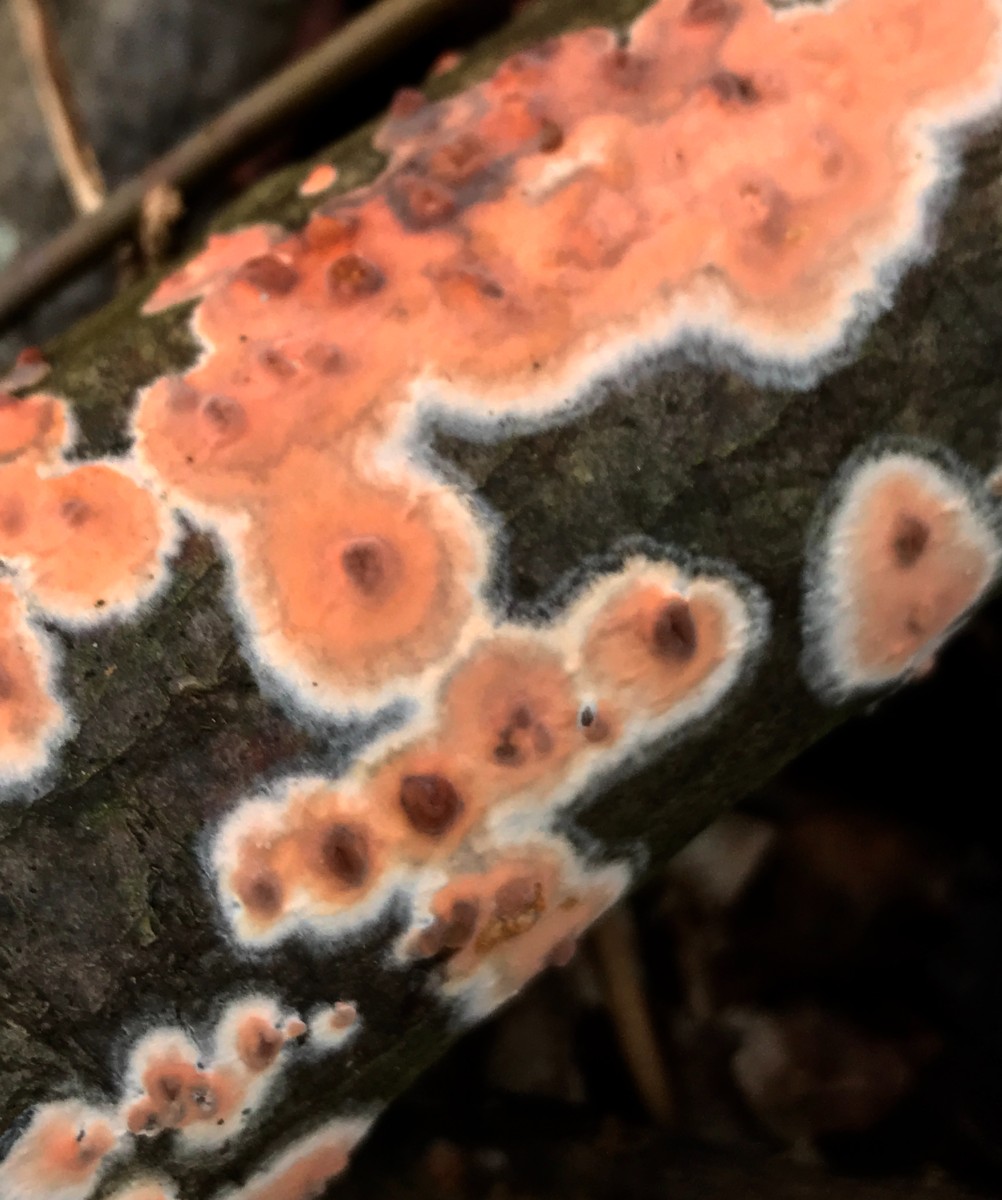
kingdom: Fungi
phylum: Basidiomycota
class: Agaricomycetes
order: Russulales
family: Peniophoraceae
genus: Peniophora
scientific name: Peniophora incarnata
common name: laksefarvet voksskind
